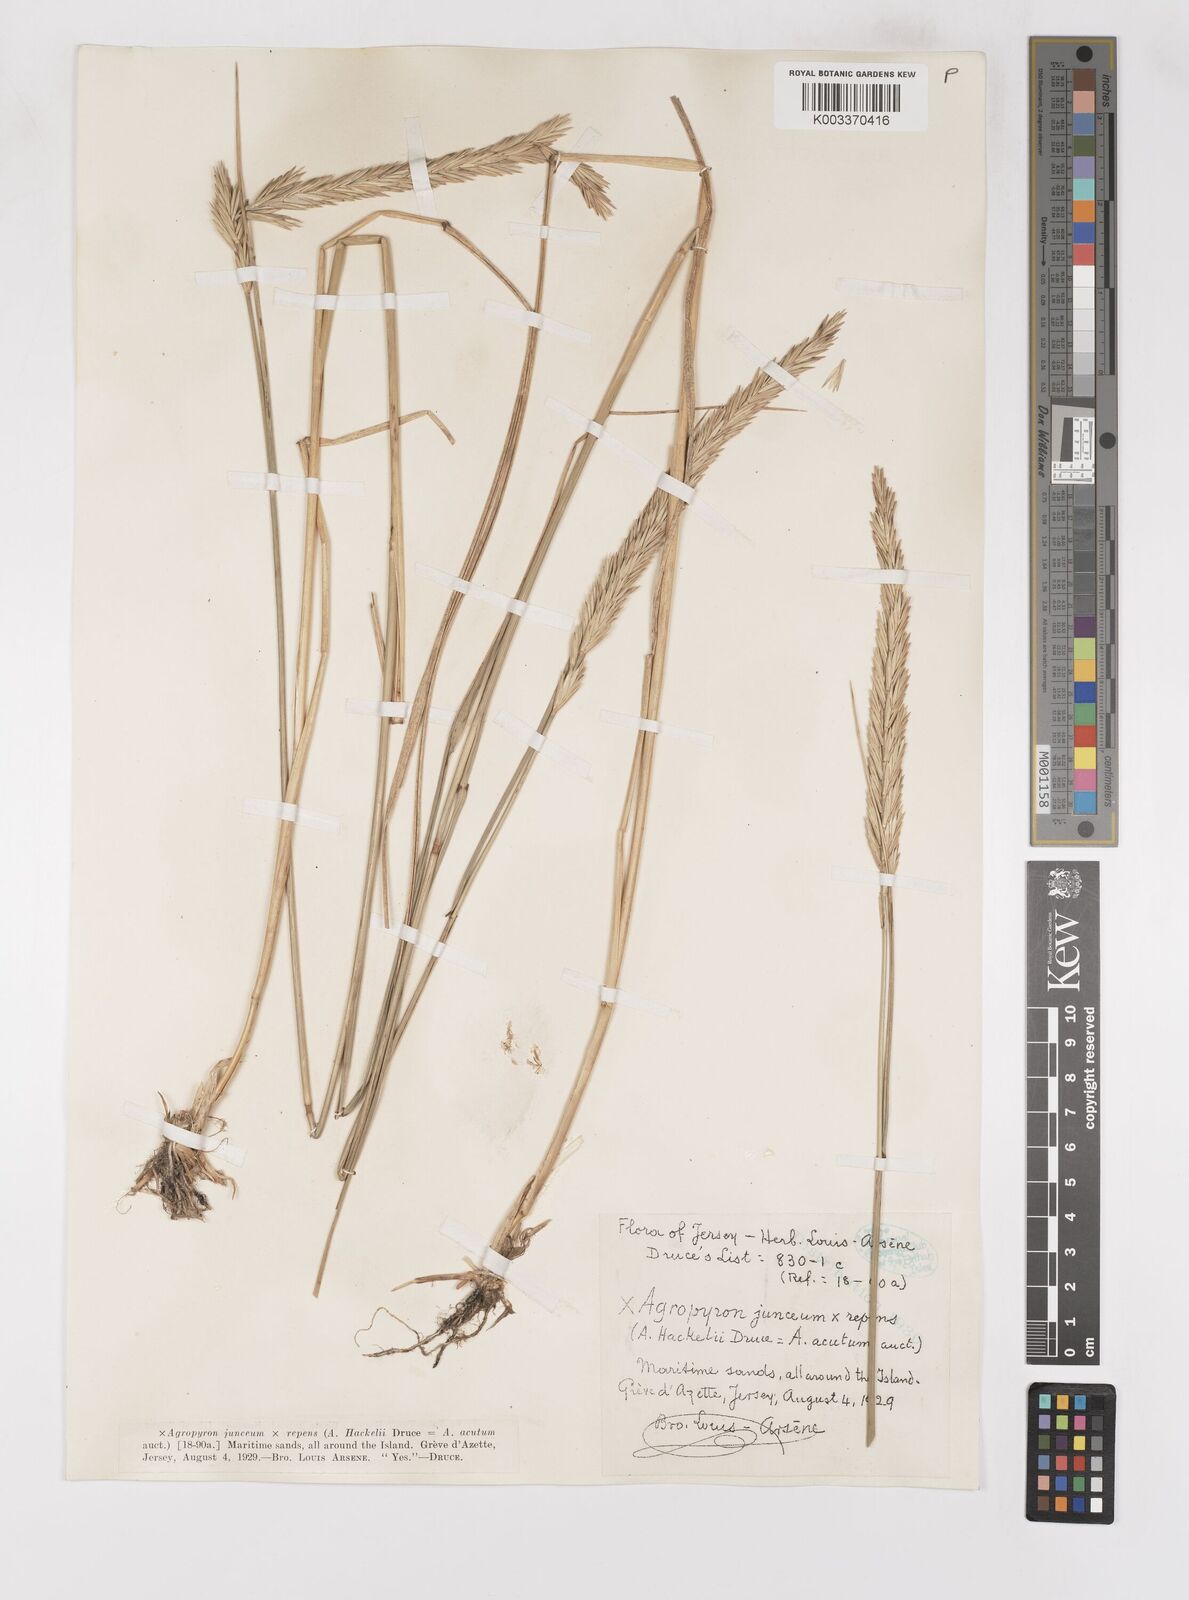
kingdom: Plantae
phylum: Tracheophyta
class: Liliopsida
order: Poales
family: Poaceae
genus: Elymus
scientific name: Elymus oliveri
